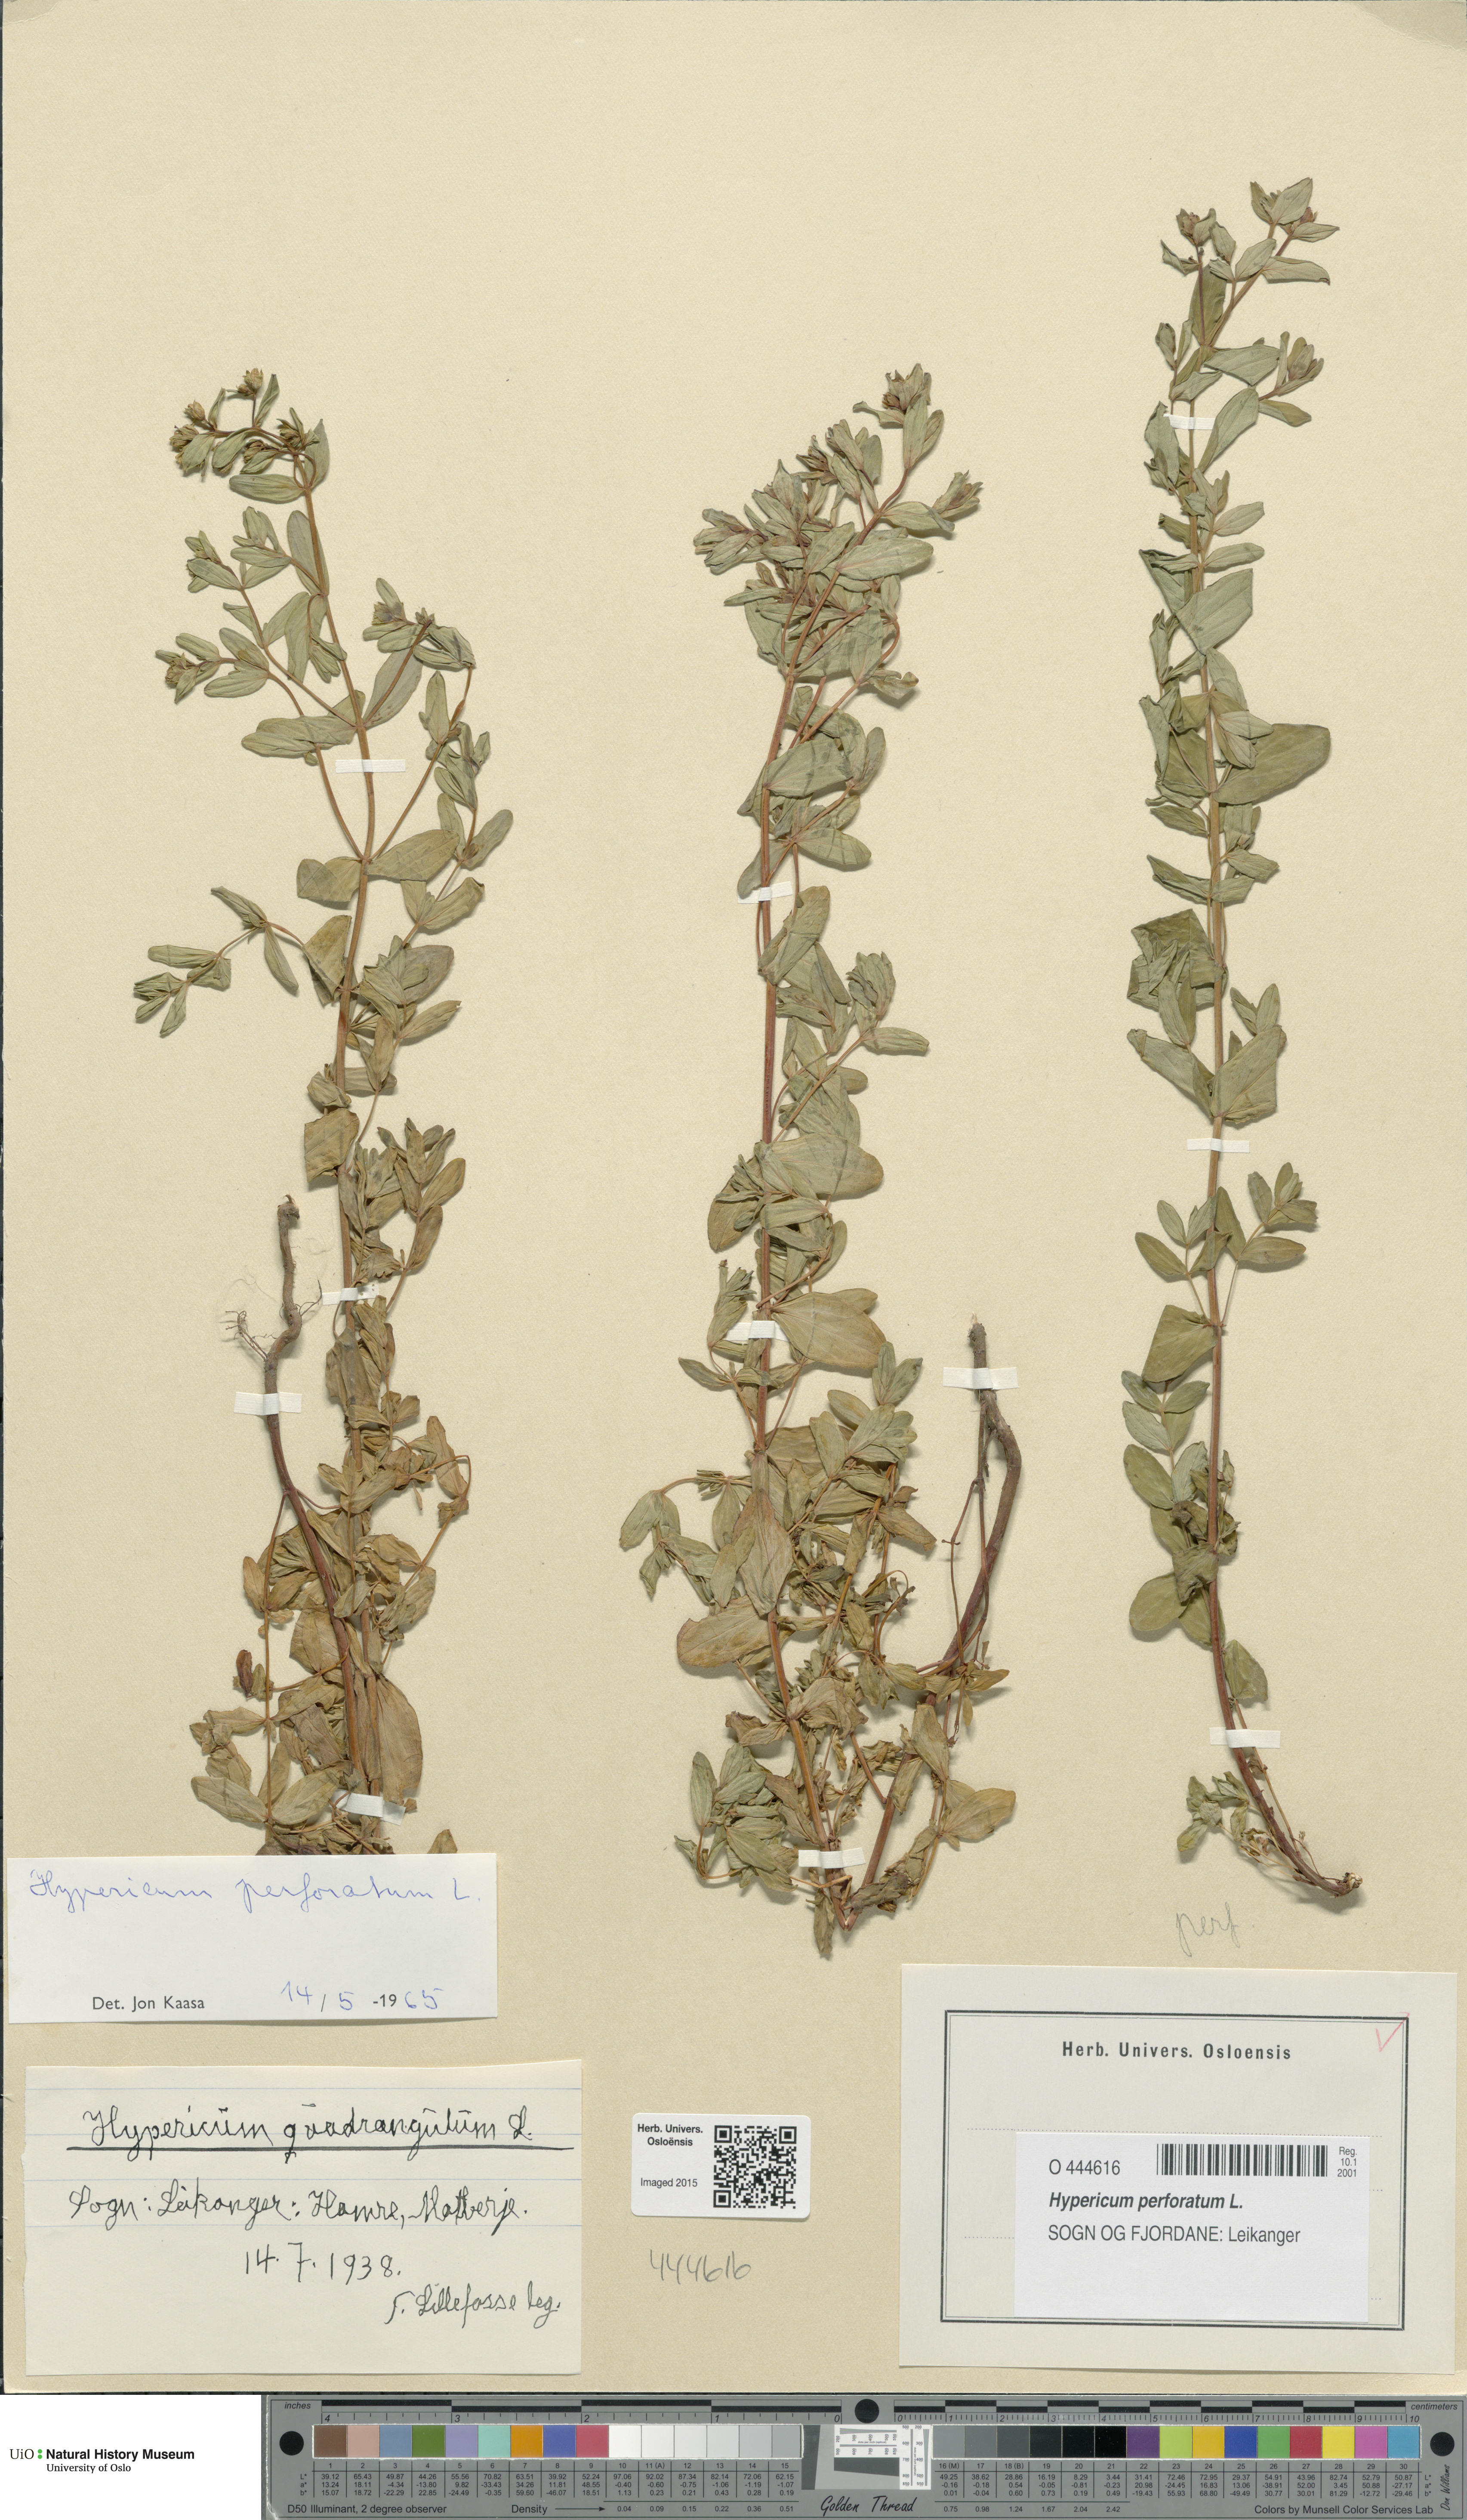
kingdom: Plantae
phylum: Tracheophyta
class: Magnoliopsida
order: Malpighiales
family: Hypericaceae
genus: Hypericum
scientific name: Hypericum perforatum
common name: Common st. johnswort
